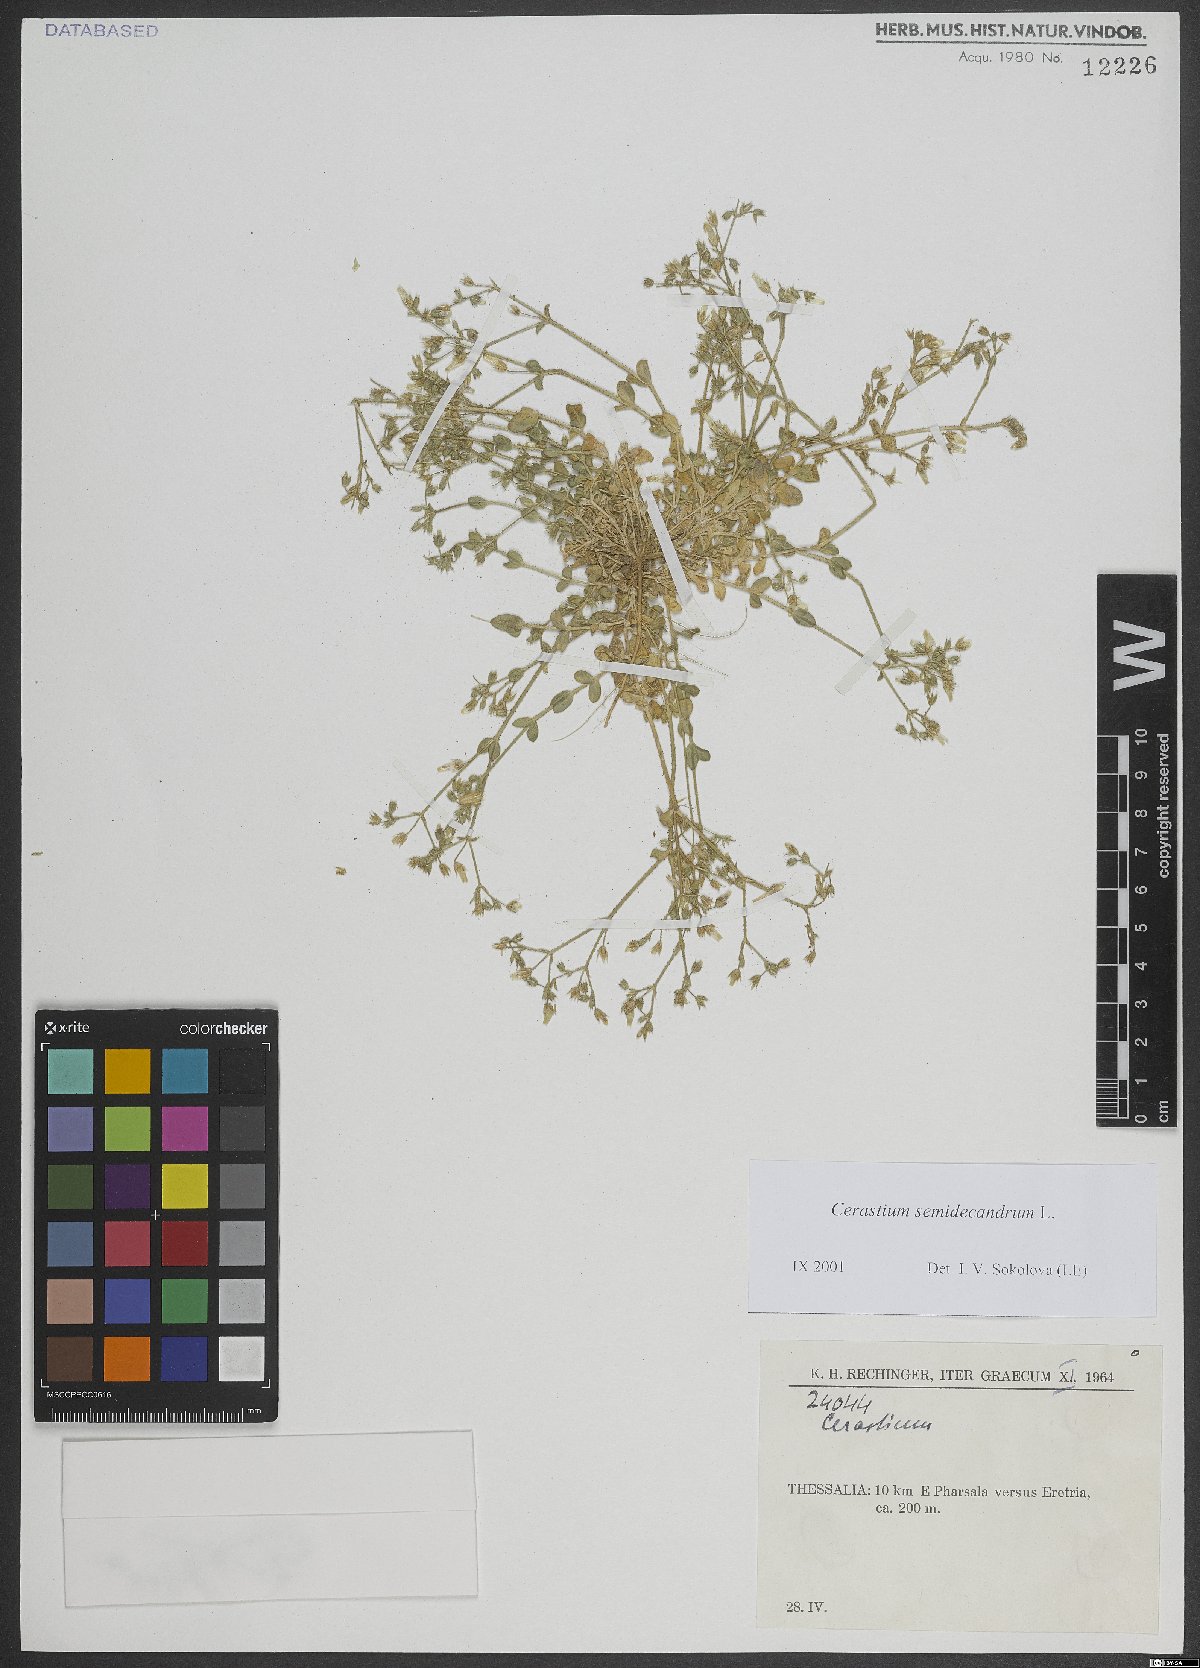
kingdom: Plantae
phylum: Tracheophyta
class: Magnoliopsida
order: Caryophyllales
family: Caryophyllaceae
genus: Cerastium
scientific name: Cerastium semidecandrum
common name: Little mouse-ear
